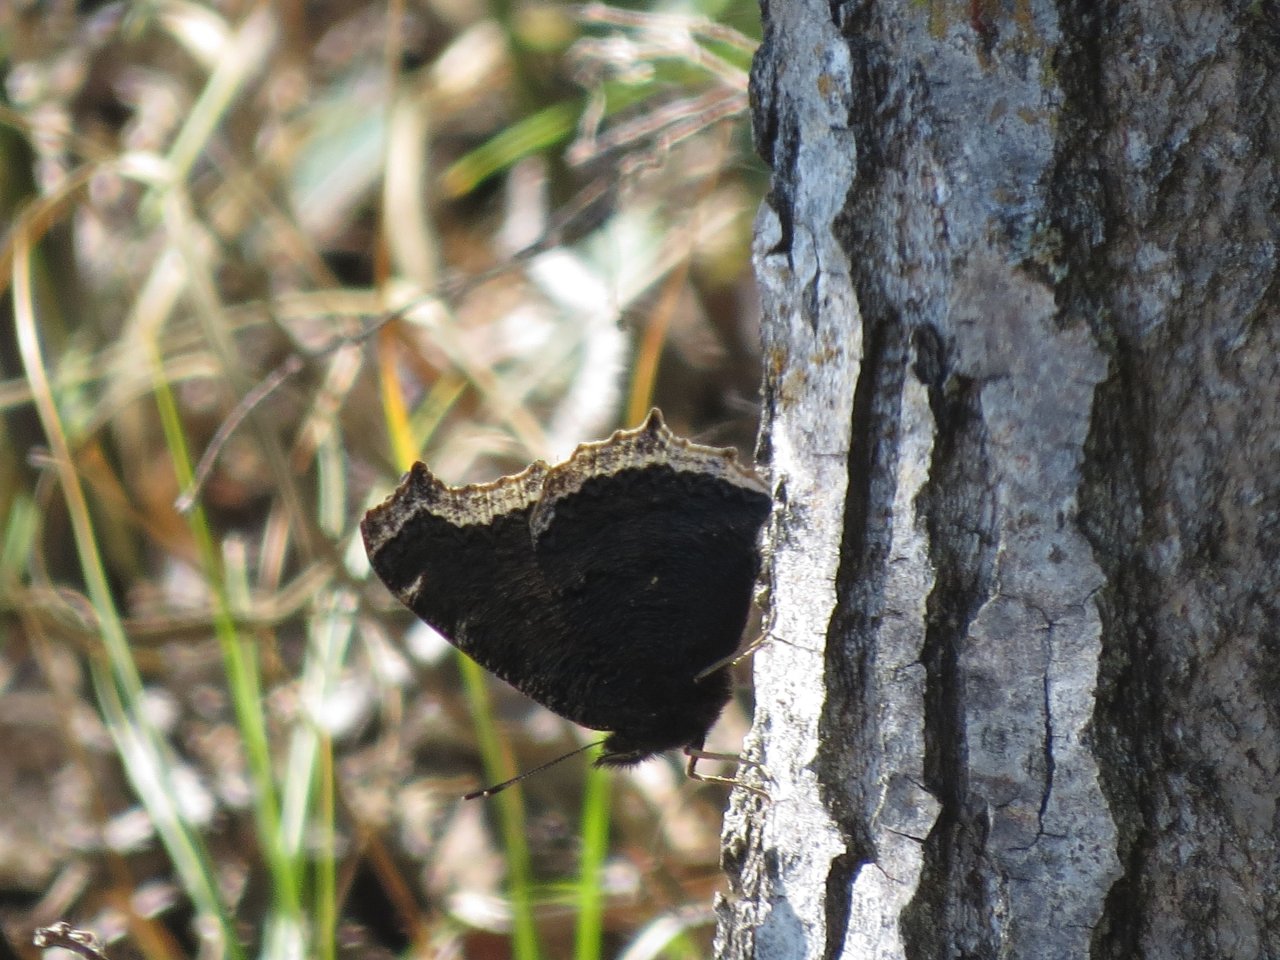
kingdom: Animalia
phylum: Arthropoda
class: Insecta
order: Lepidoptera
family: Nymphalidae
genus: Nymphalis
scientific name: Nymphalis antiopa
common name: Mourning Cloak
